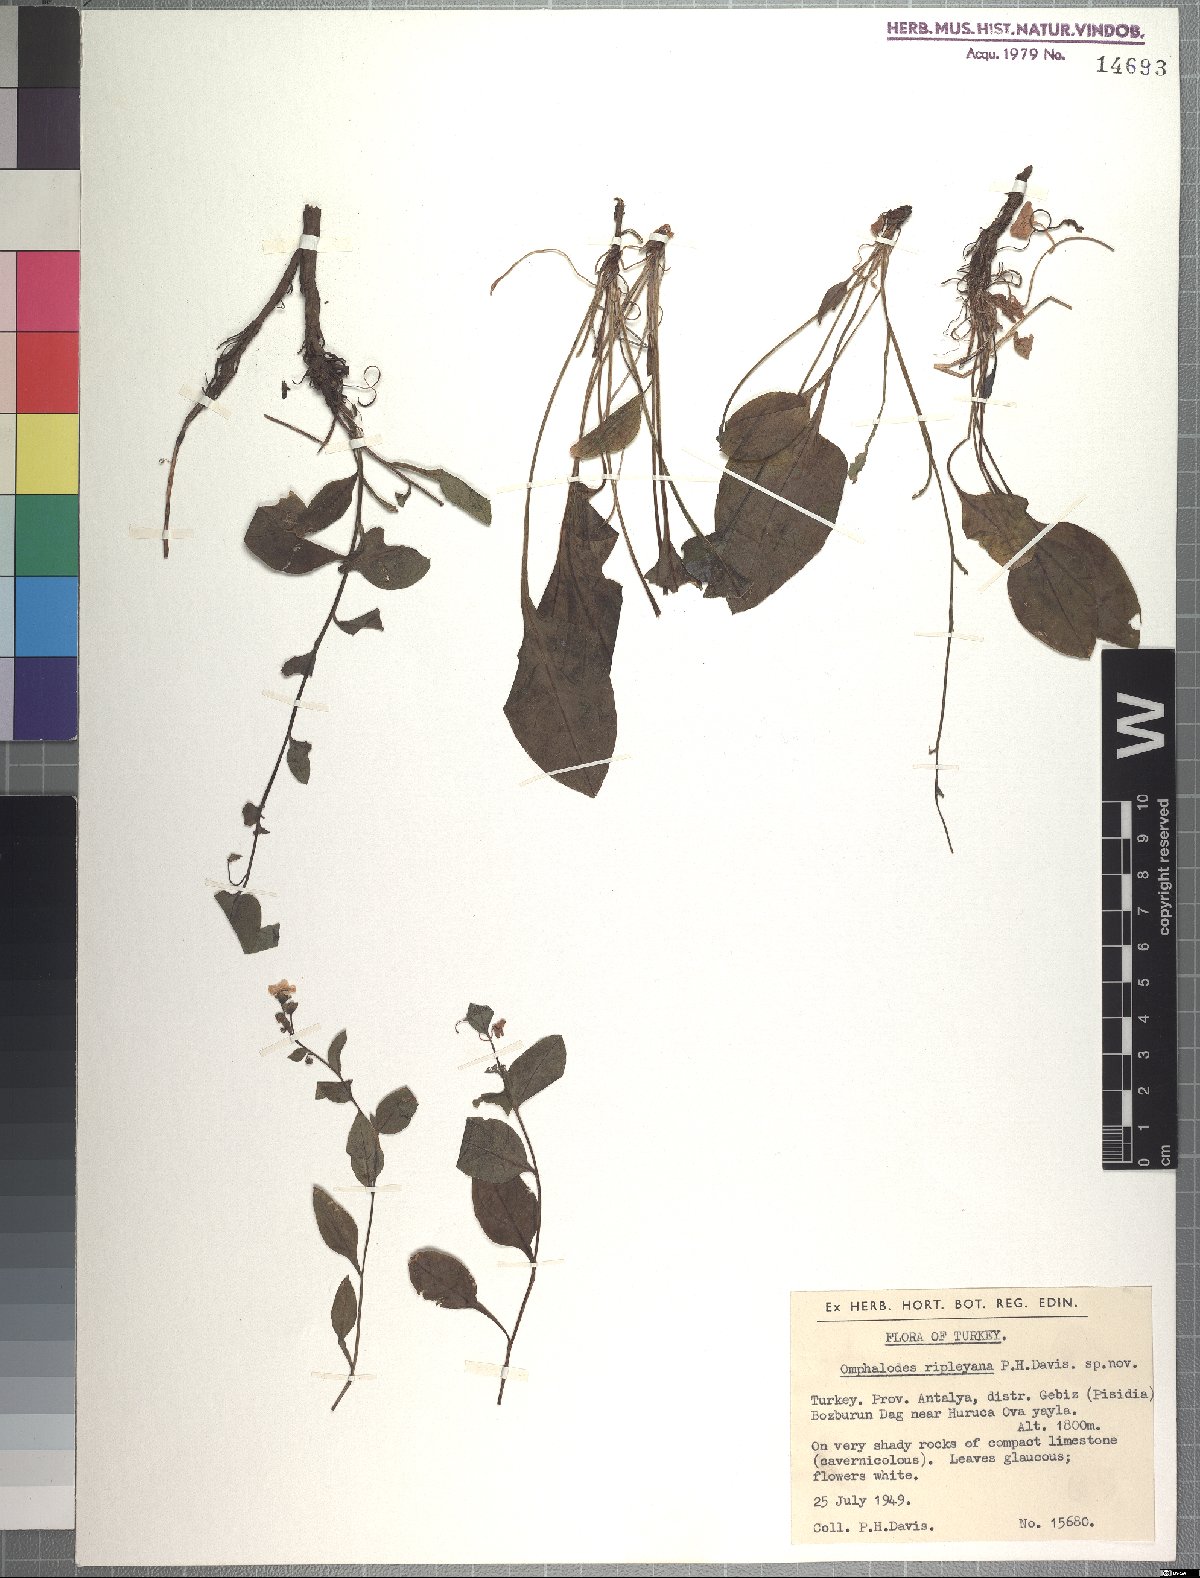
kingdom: Plantae
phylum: Tracheophyta
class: Magnoliopsida
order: Boraginales
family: Boraginaceae
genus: Omphalodes
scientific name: Omphalodes ripleyana
